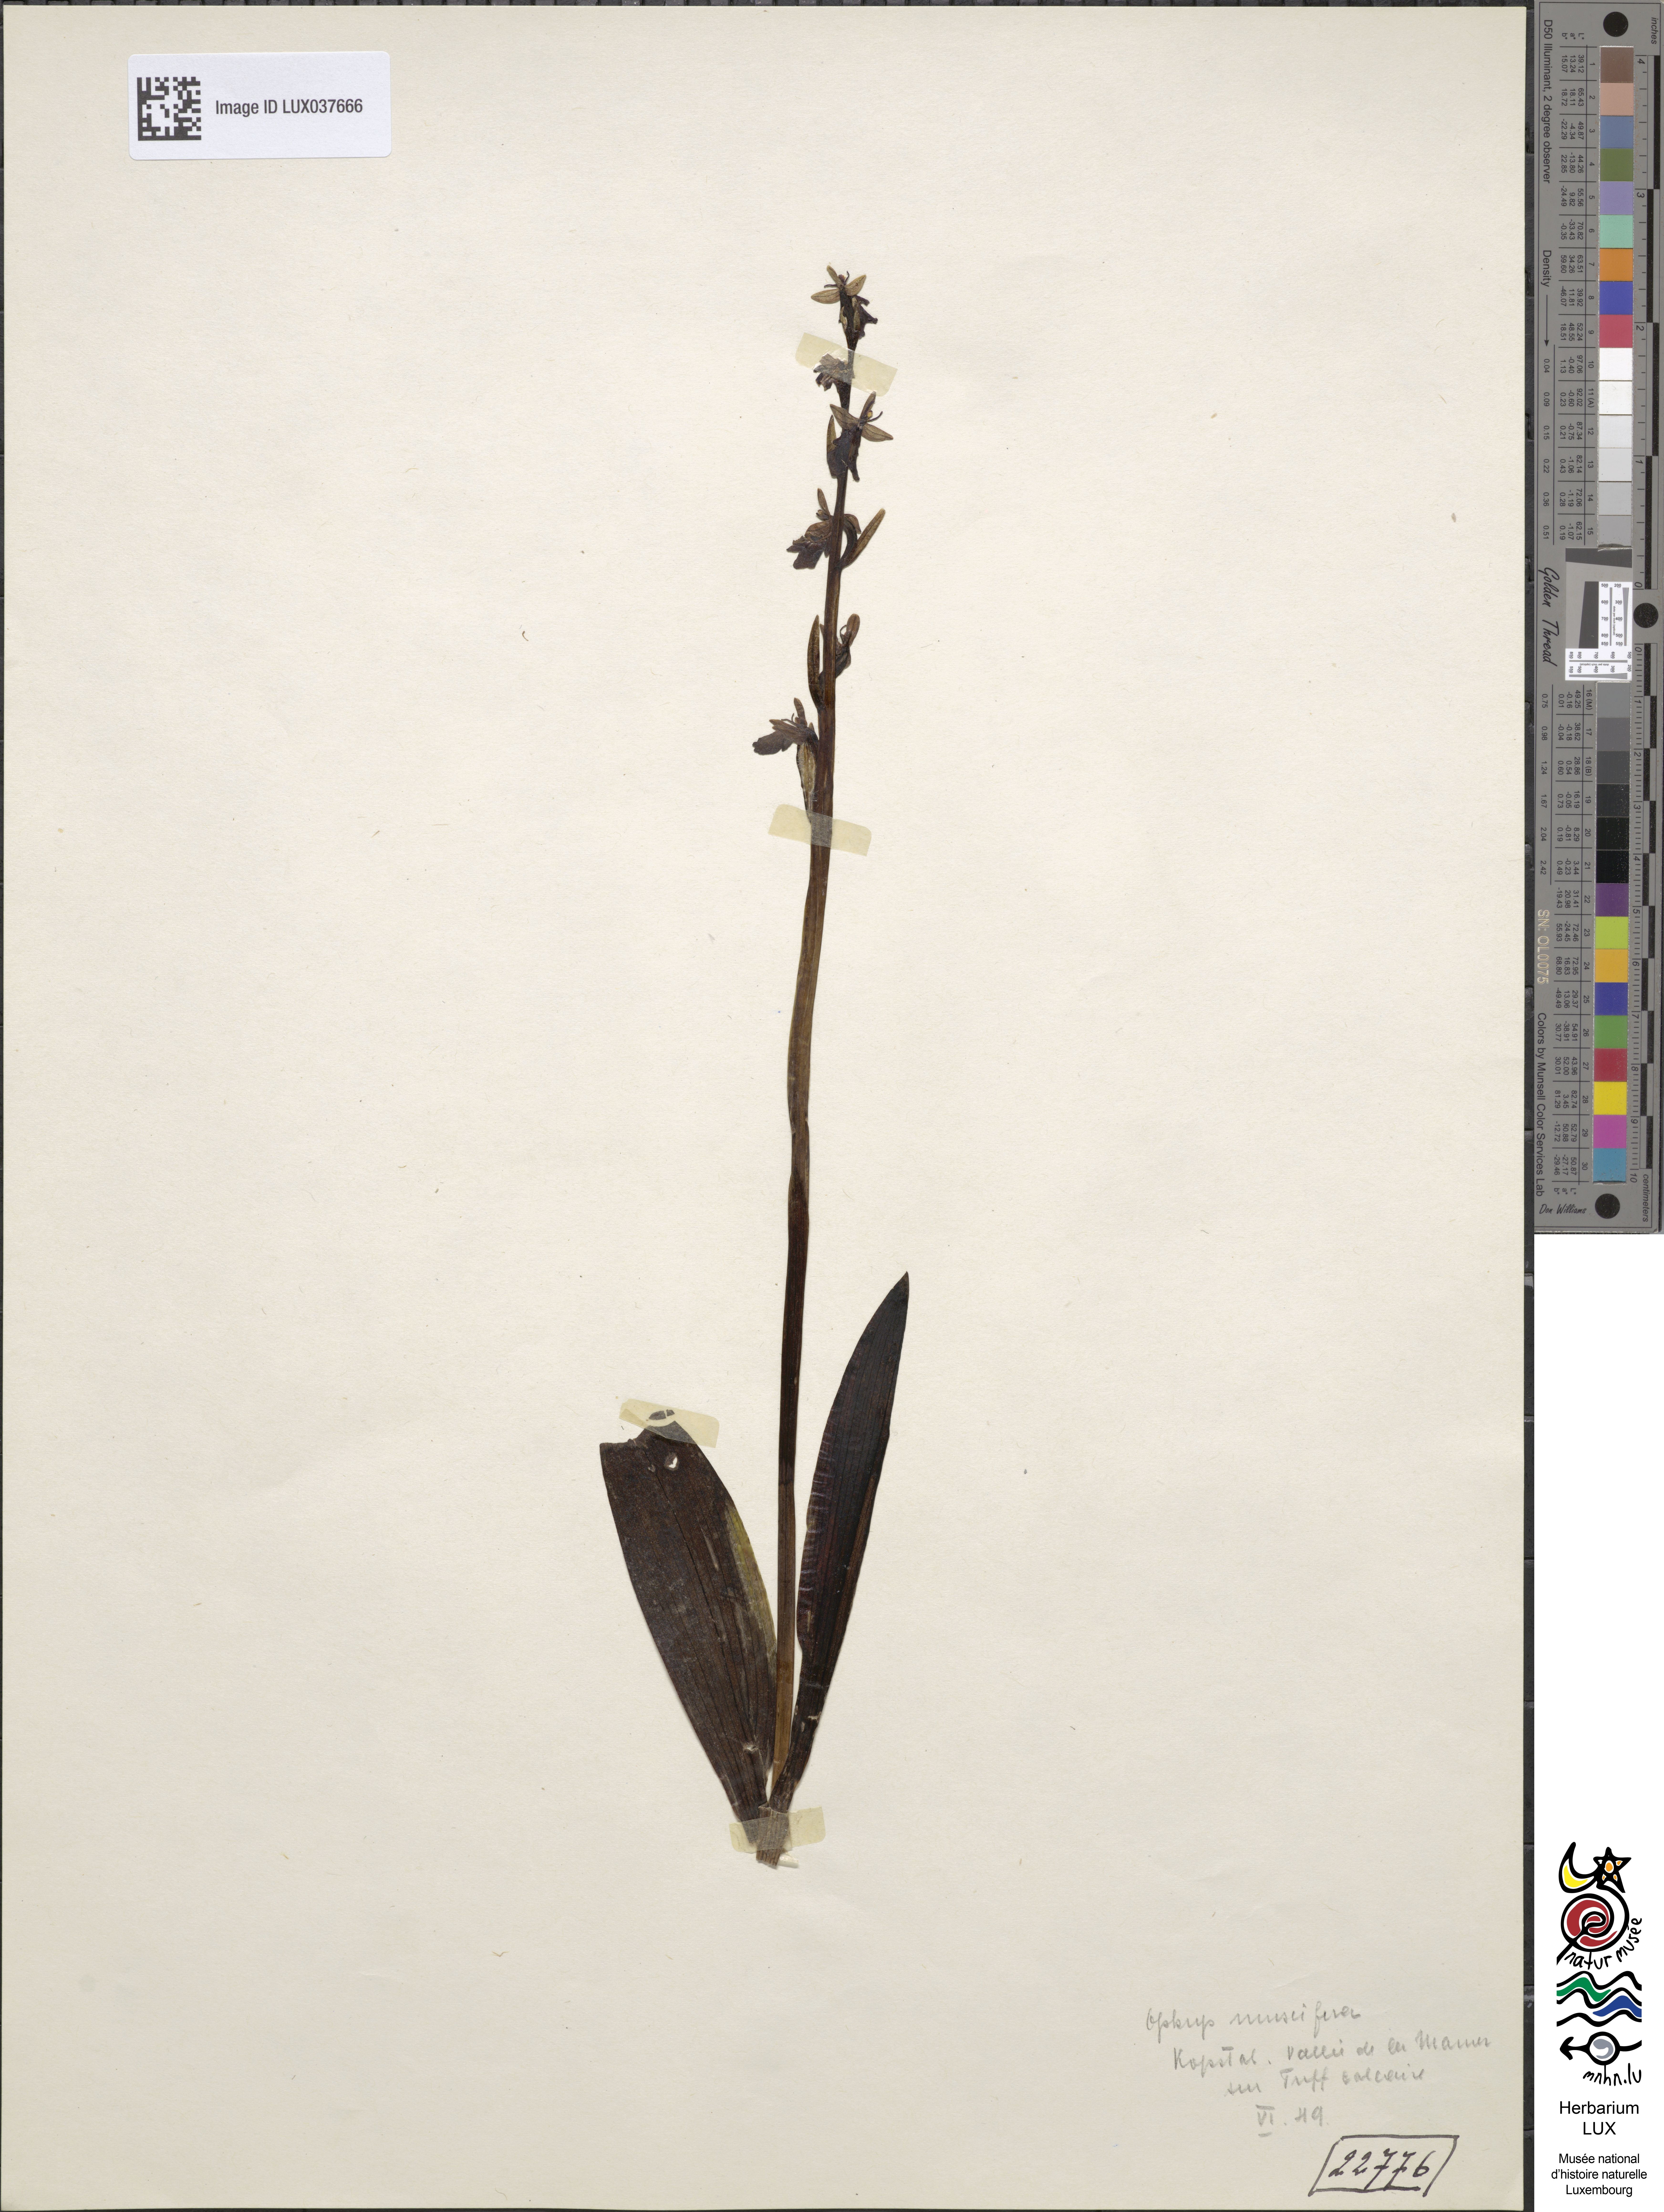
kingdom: Plantae
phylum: Tracheophyta
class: Liliopsida
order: Asparagales
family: Orchidaceae
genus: Ophrys
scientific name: Ophrys insectifera
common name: Fly orchid
